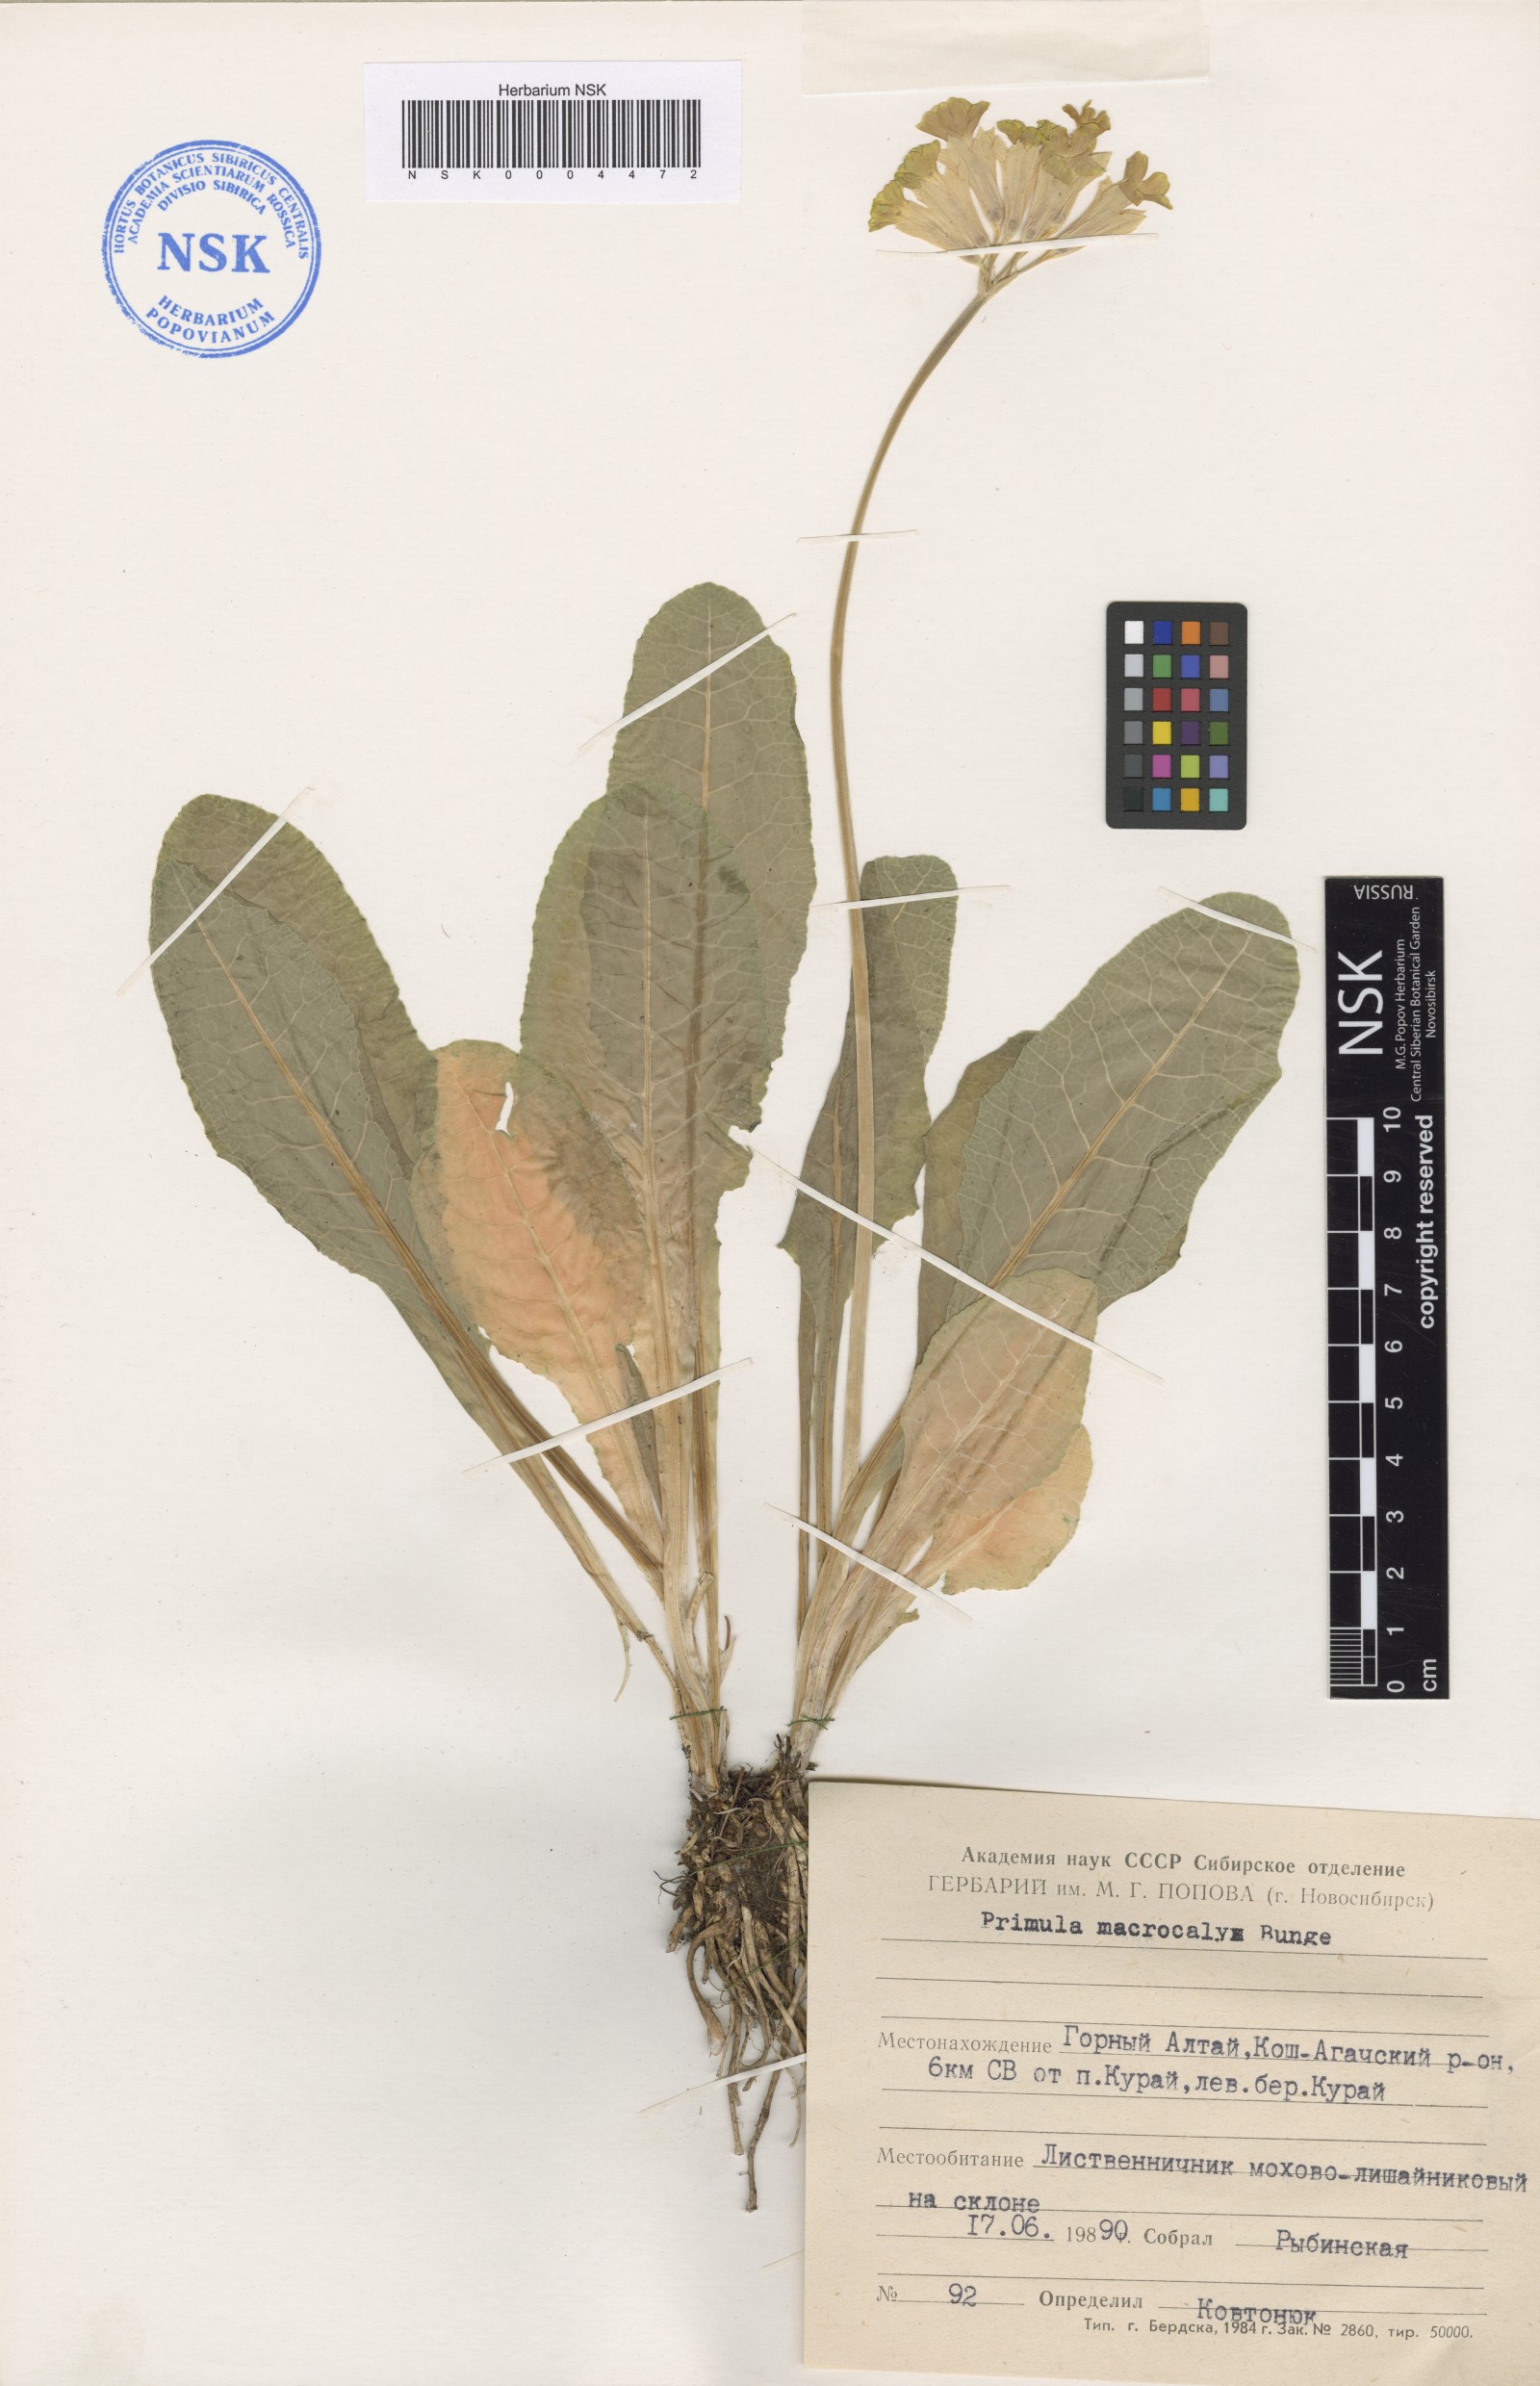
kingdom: Plantae
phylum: Tracheophyta
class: Magnoliopsida
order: Ericales
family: Primulaceae
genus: Primula
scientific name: Primula veris
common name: Cowslip
